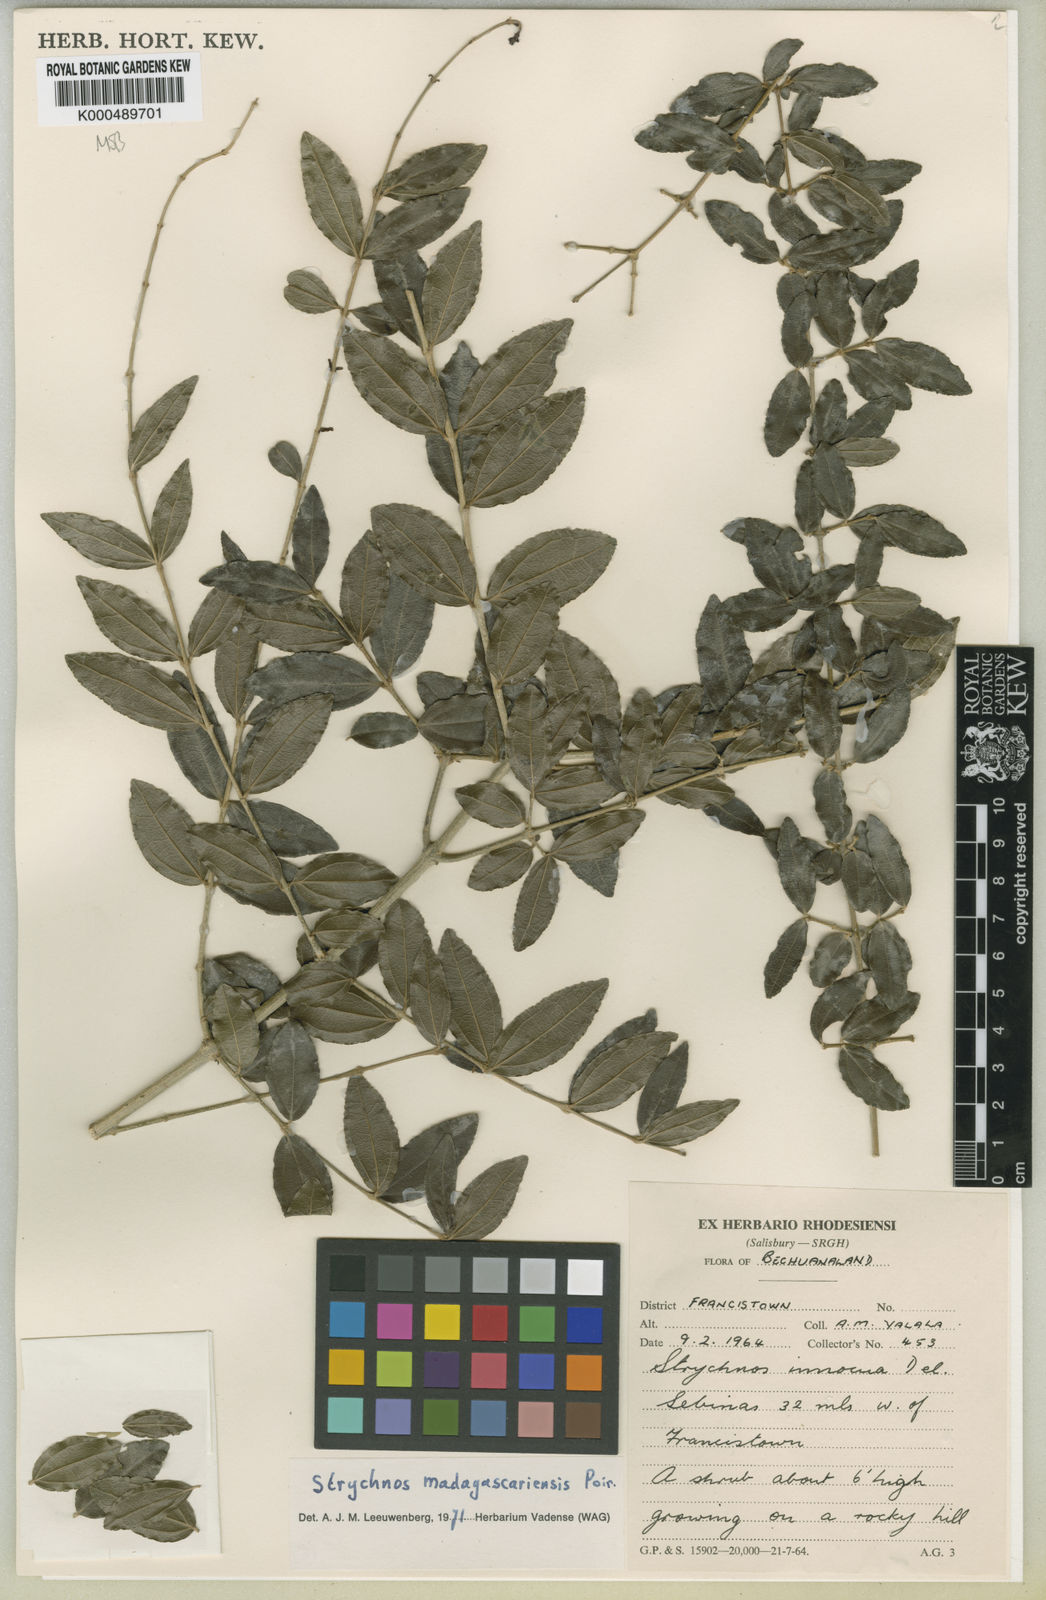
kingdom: Plantae
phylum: Tracheophyta
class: Magnoliopsida
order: Gentianales
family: Loganiaceae
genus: Strychnos
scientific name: Strychnos madagascariensis
